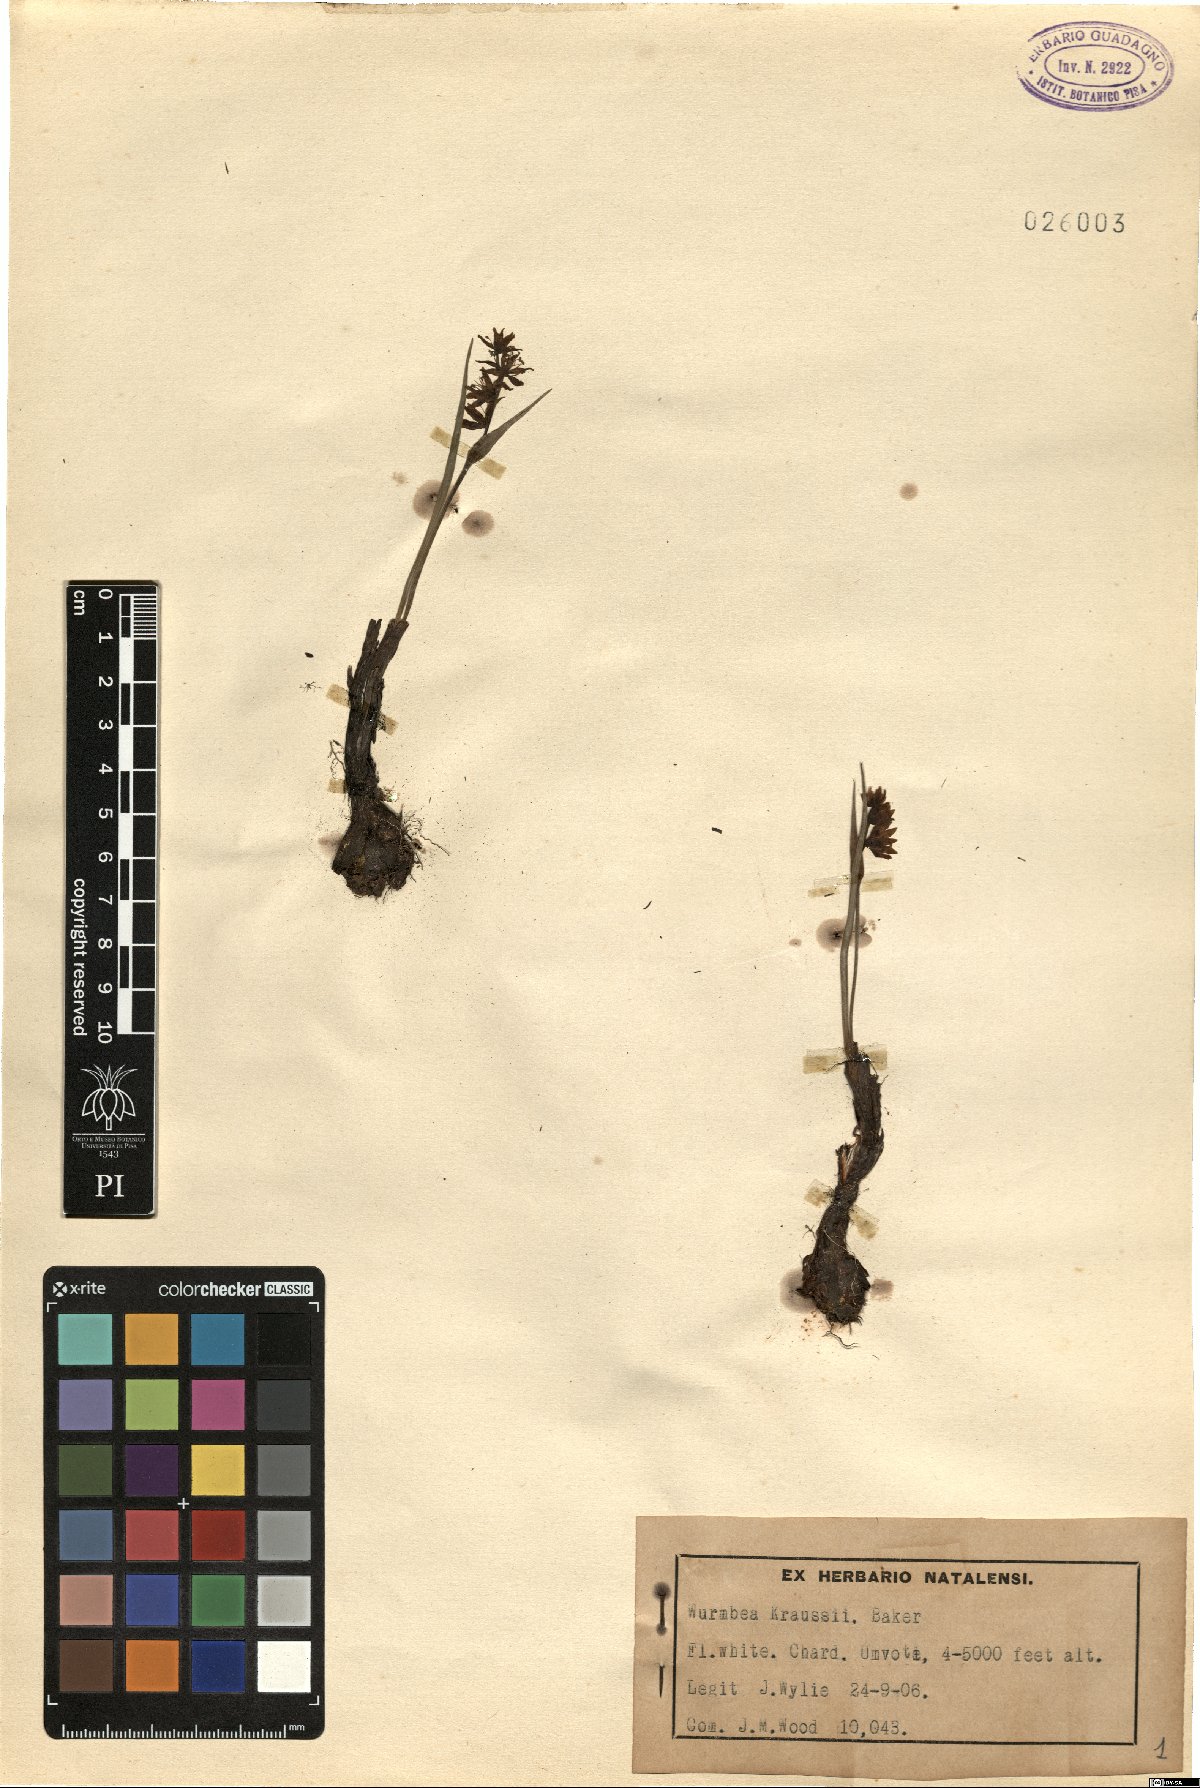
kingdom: Plantae
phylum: Tracheophyta
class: Liliopsida
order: Liliales
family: Colchicaceae
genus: Wurmbea
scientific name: Wurmbea kraussii
